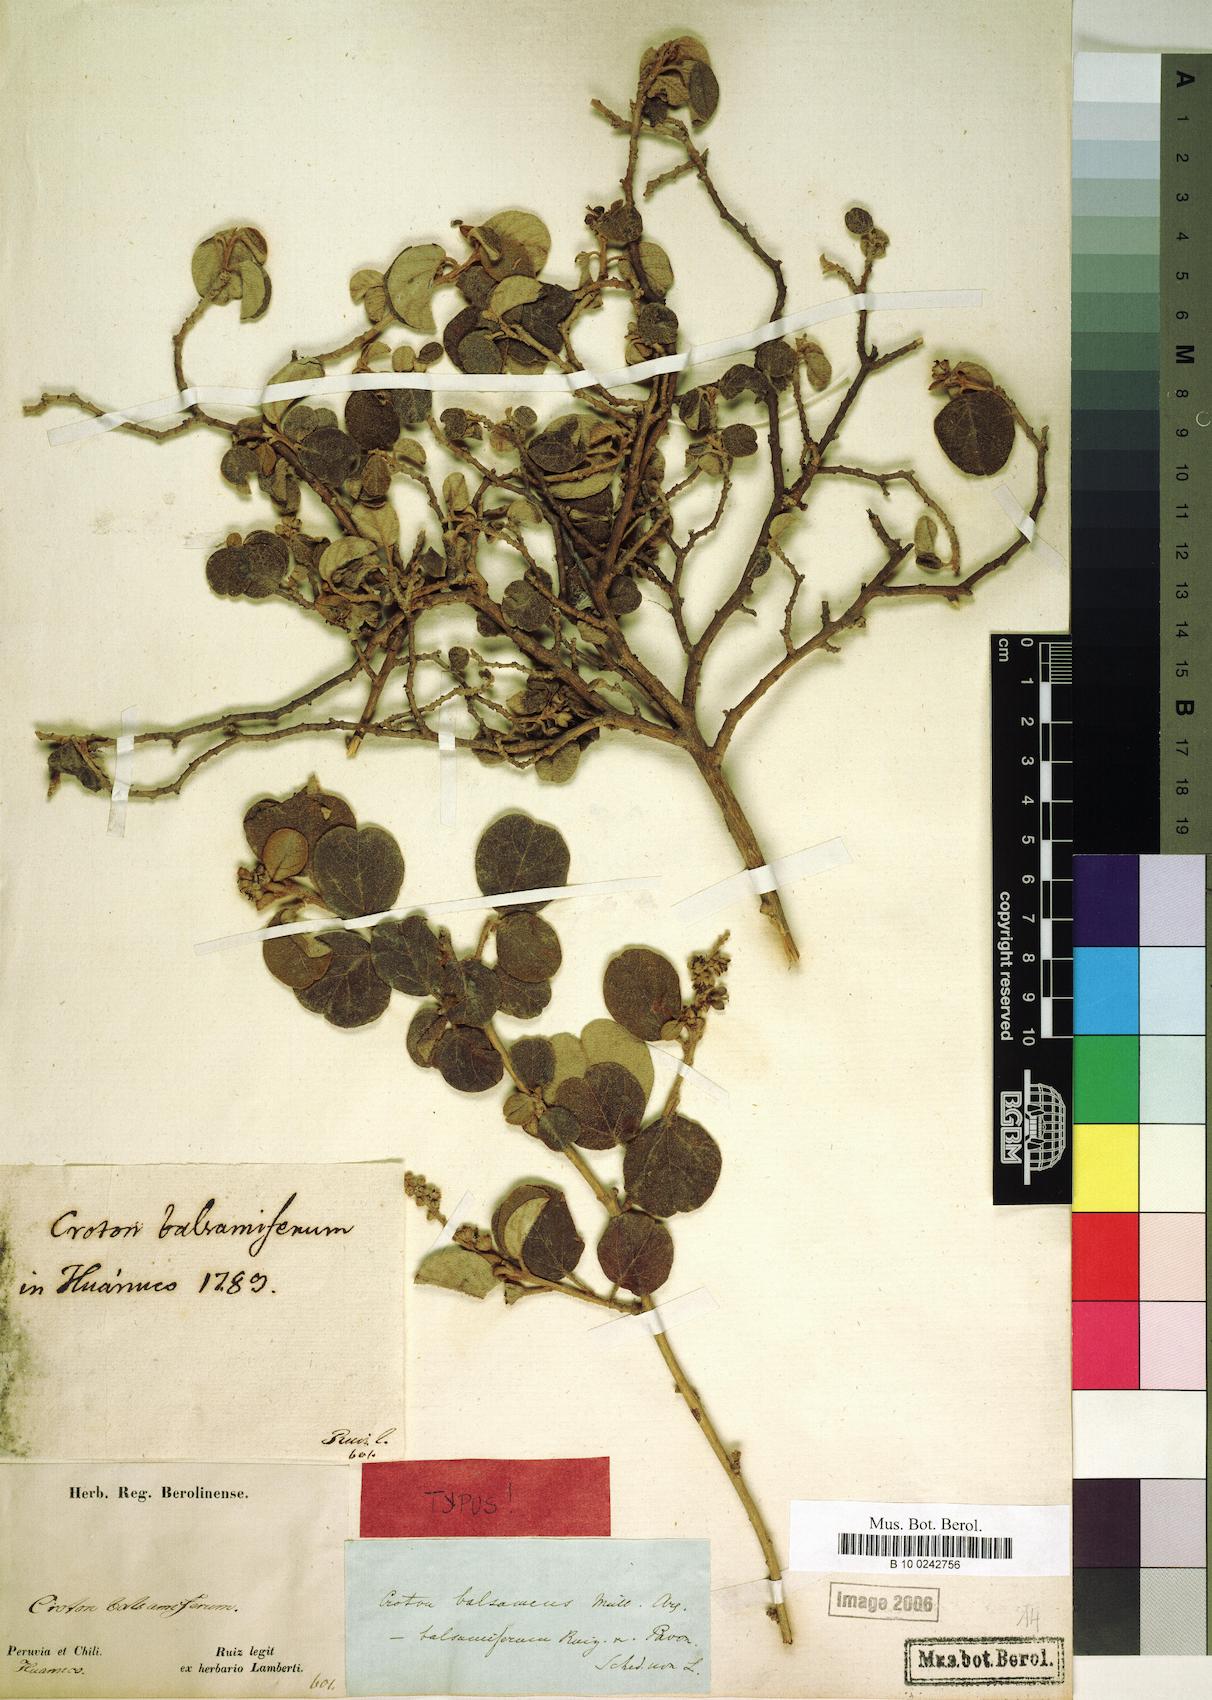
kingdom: Plantae
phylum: Tracheophyta
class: Magnoliopsida
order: Malpighiales
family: Euphorbiaceae
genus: Croton
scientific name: Croton balsameus
